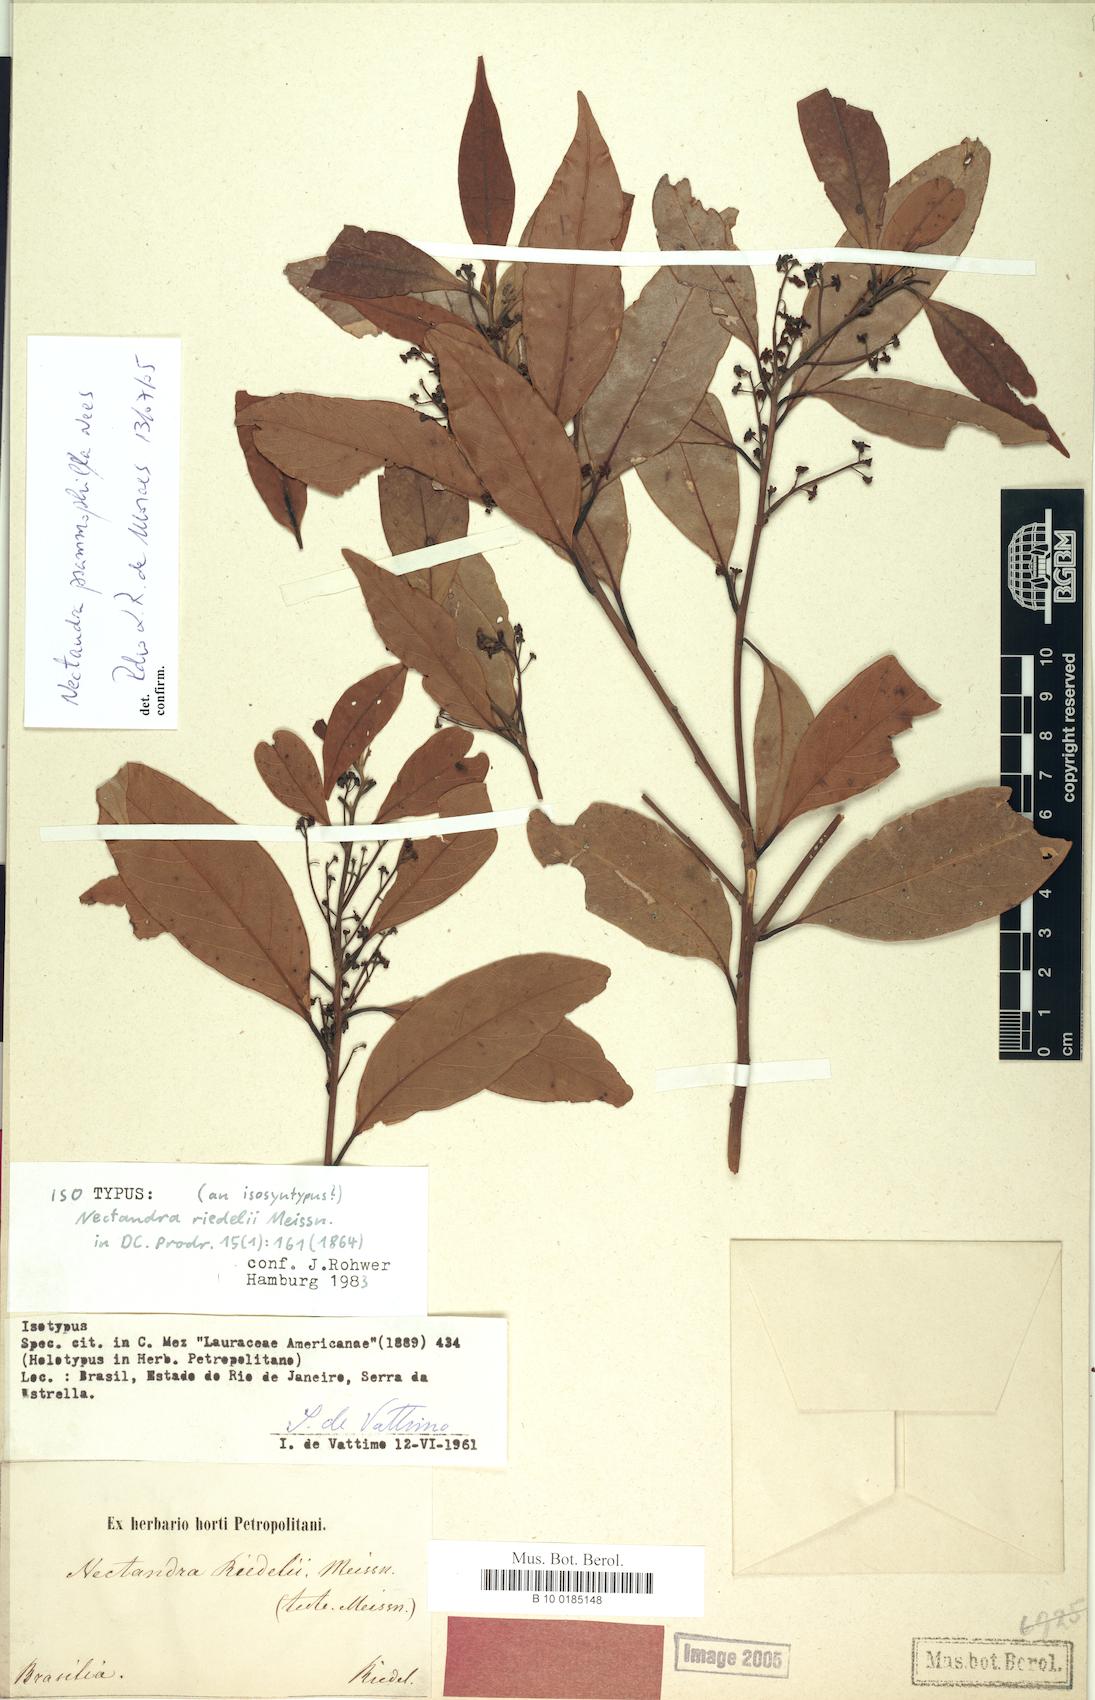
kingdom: Plantae
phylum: Tracheophyta
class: Magnoliopsida
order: Laurales
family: Lauraceae
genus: Nectandra
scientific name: Nectandra psammophila
